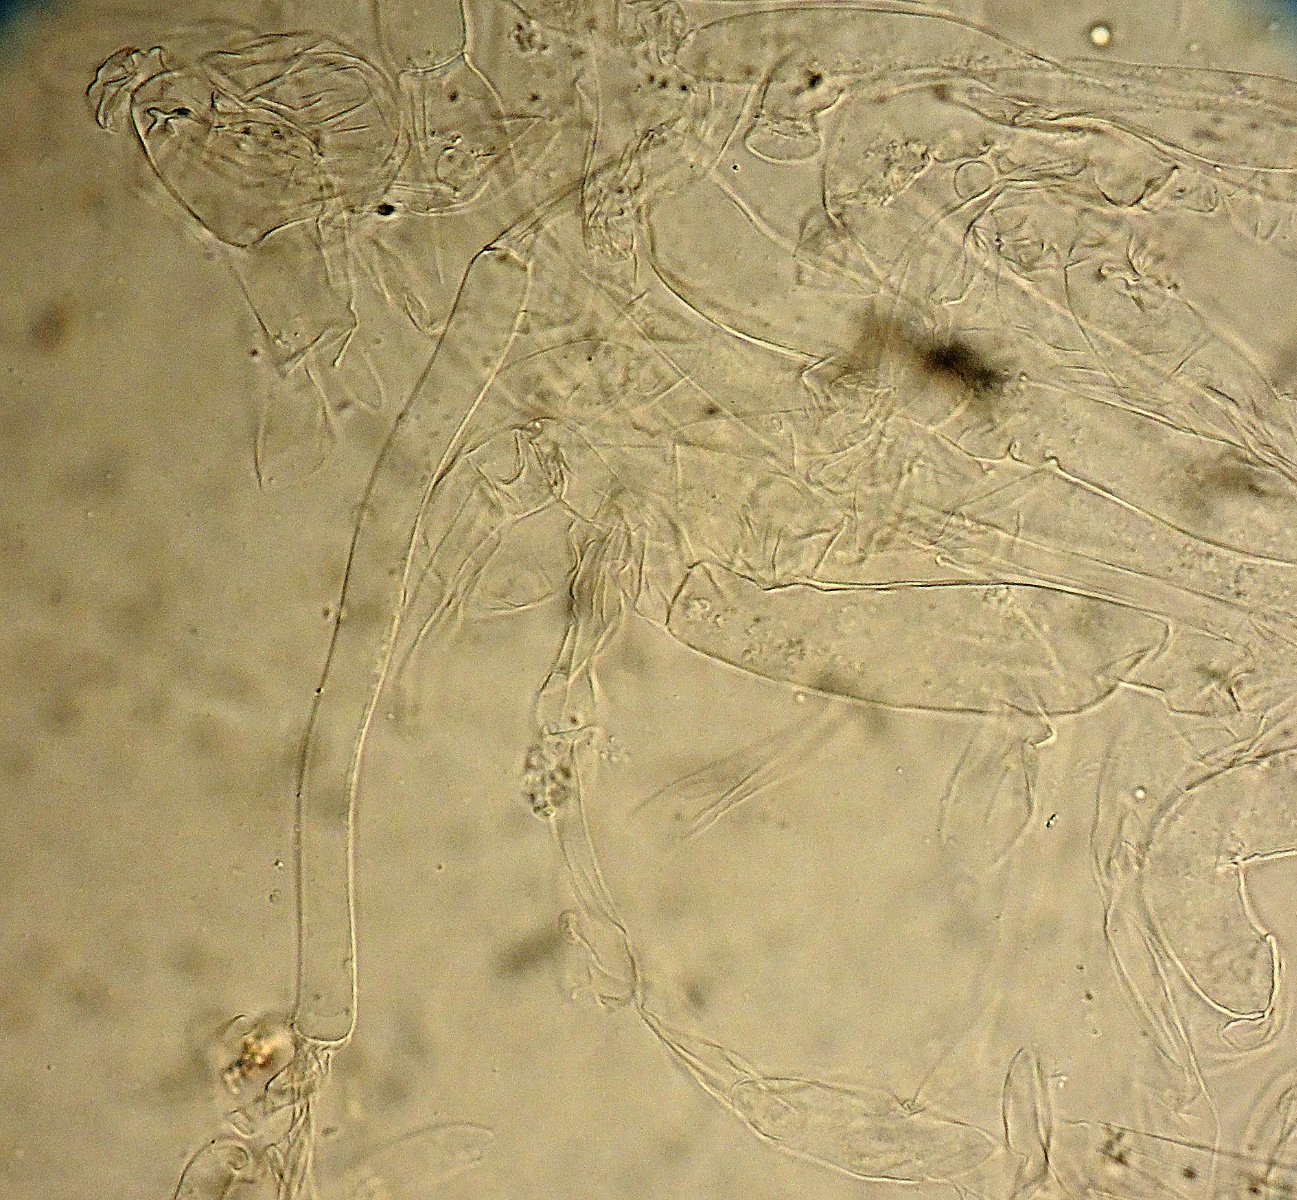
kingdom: Fungi
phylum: Basidiomycota
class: Agaricomycetes
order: Agaricales
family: Hygrophoraceae
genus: Arrhenia
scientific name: Arrhenia
